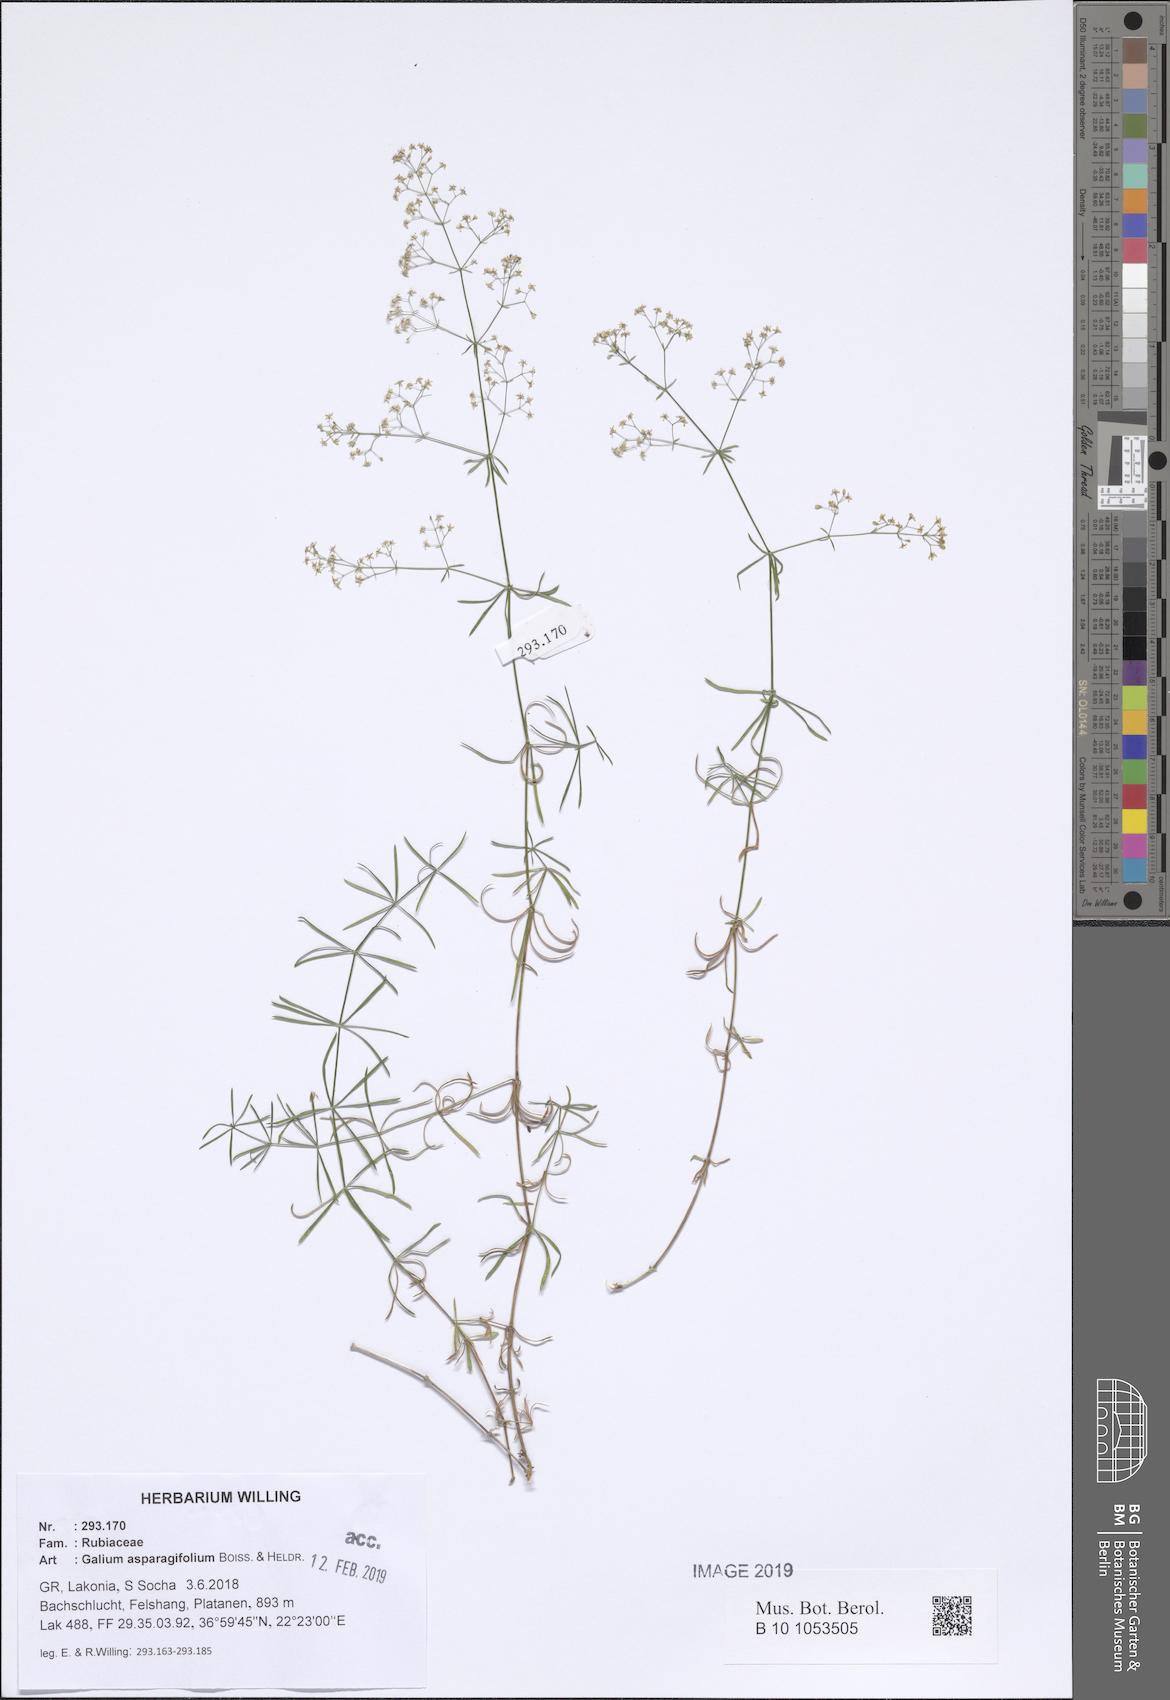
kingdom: Plantae
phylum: Tracheophyta
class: Magnoliopsida
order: Gentianales
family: Rubiaceae
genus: Galium
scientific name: Galium asparagifolium
